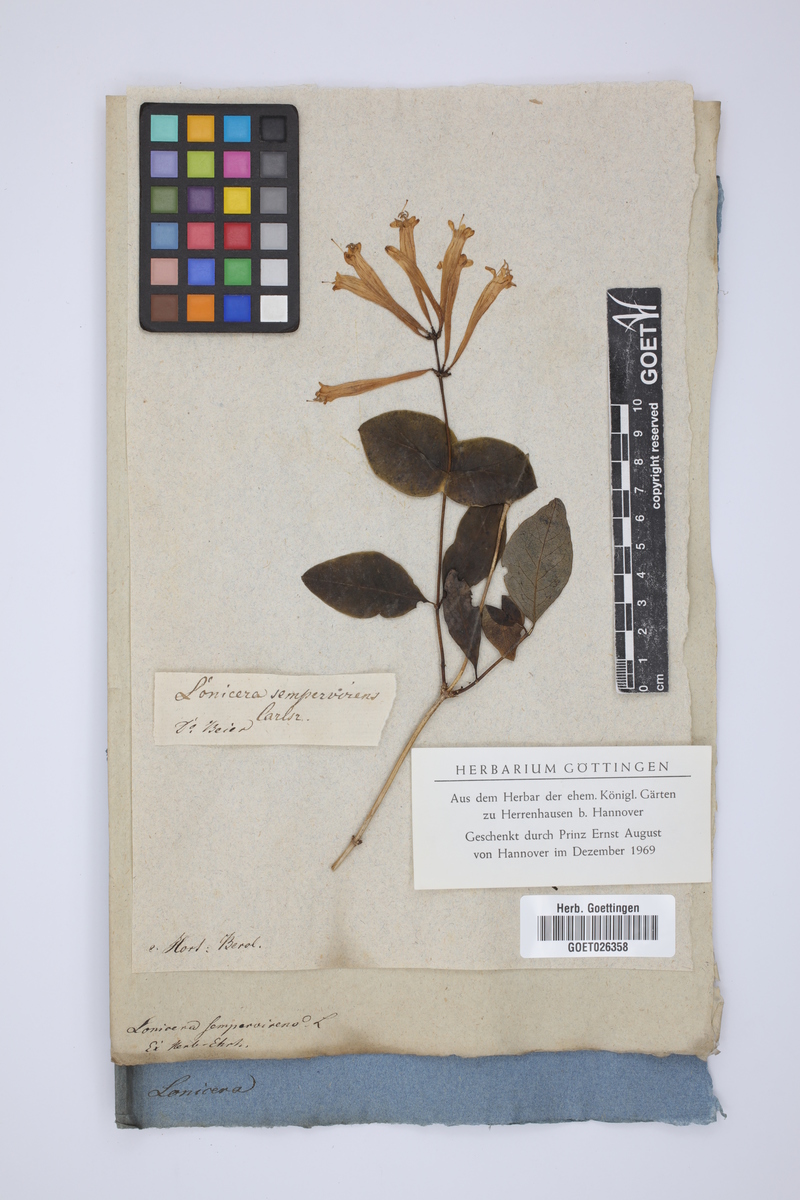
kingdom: Plantae
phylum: Tracheophyta
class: Magnoliopsida
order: Dipsacales
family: Caprifoliaceae
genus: Lonicera
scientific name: Lonicera sempervirens
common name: Coral honeysuckle
